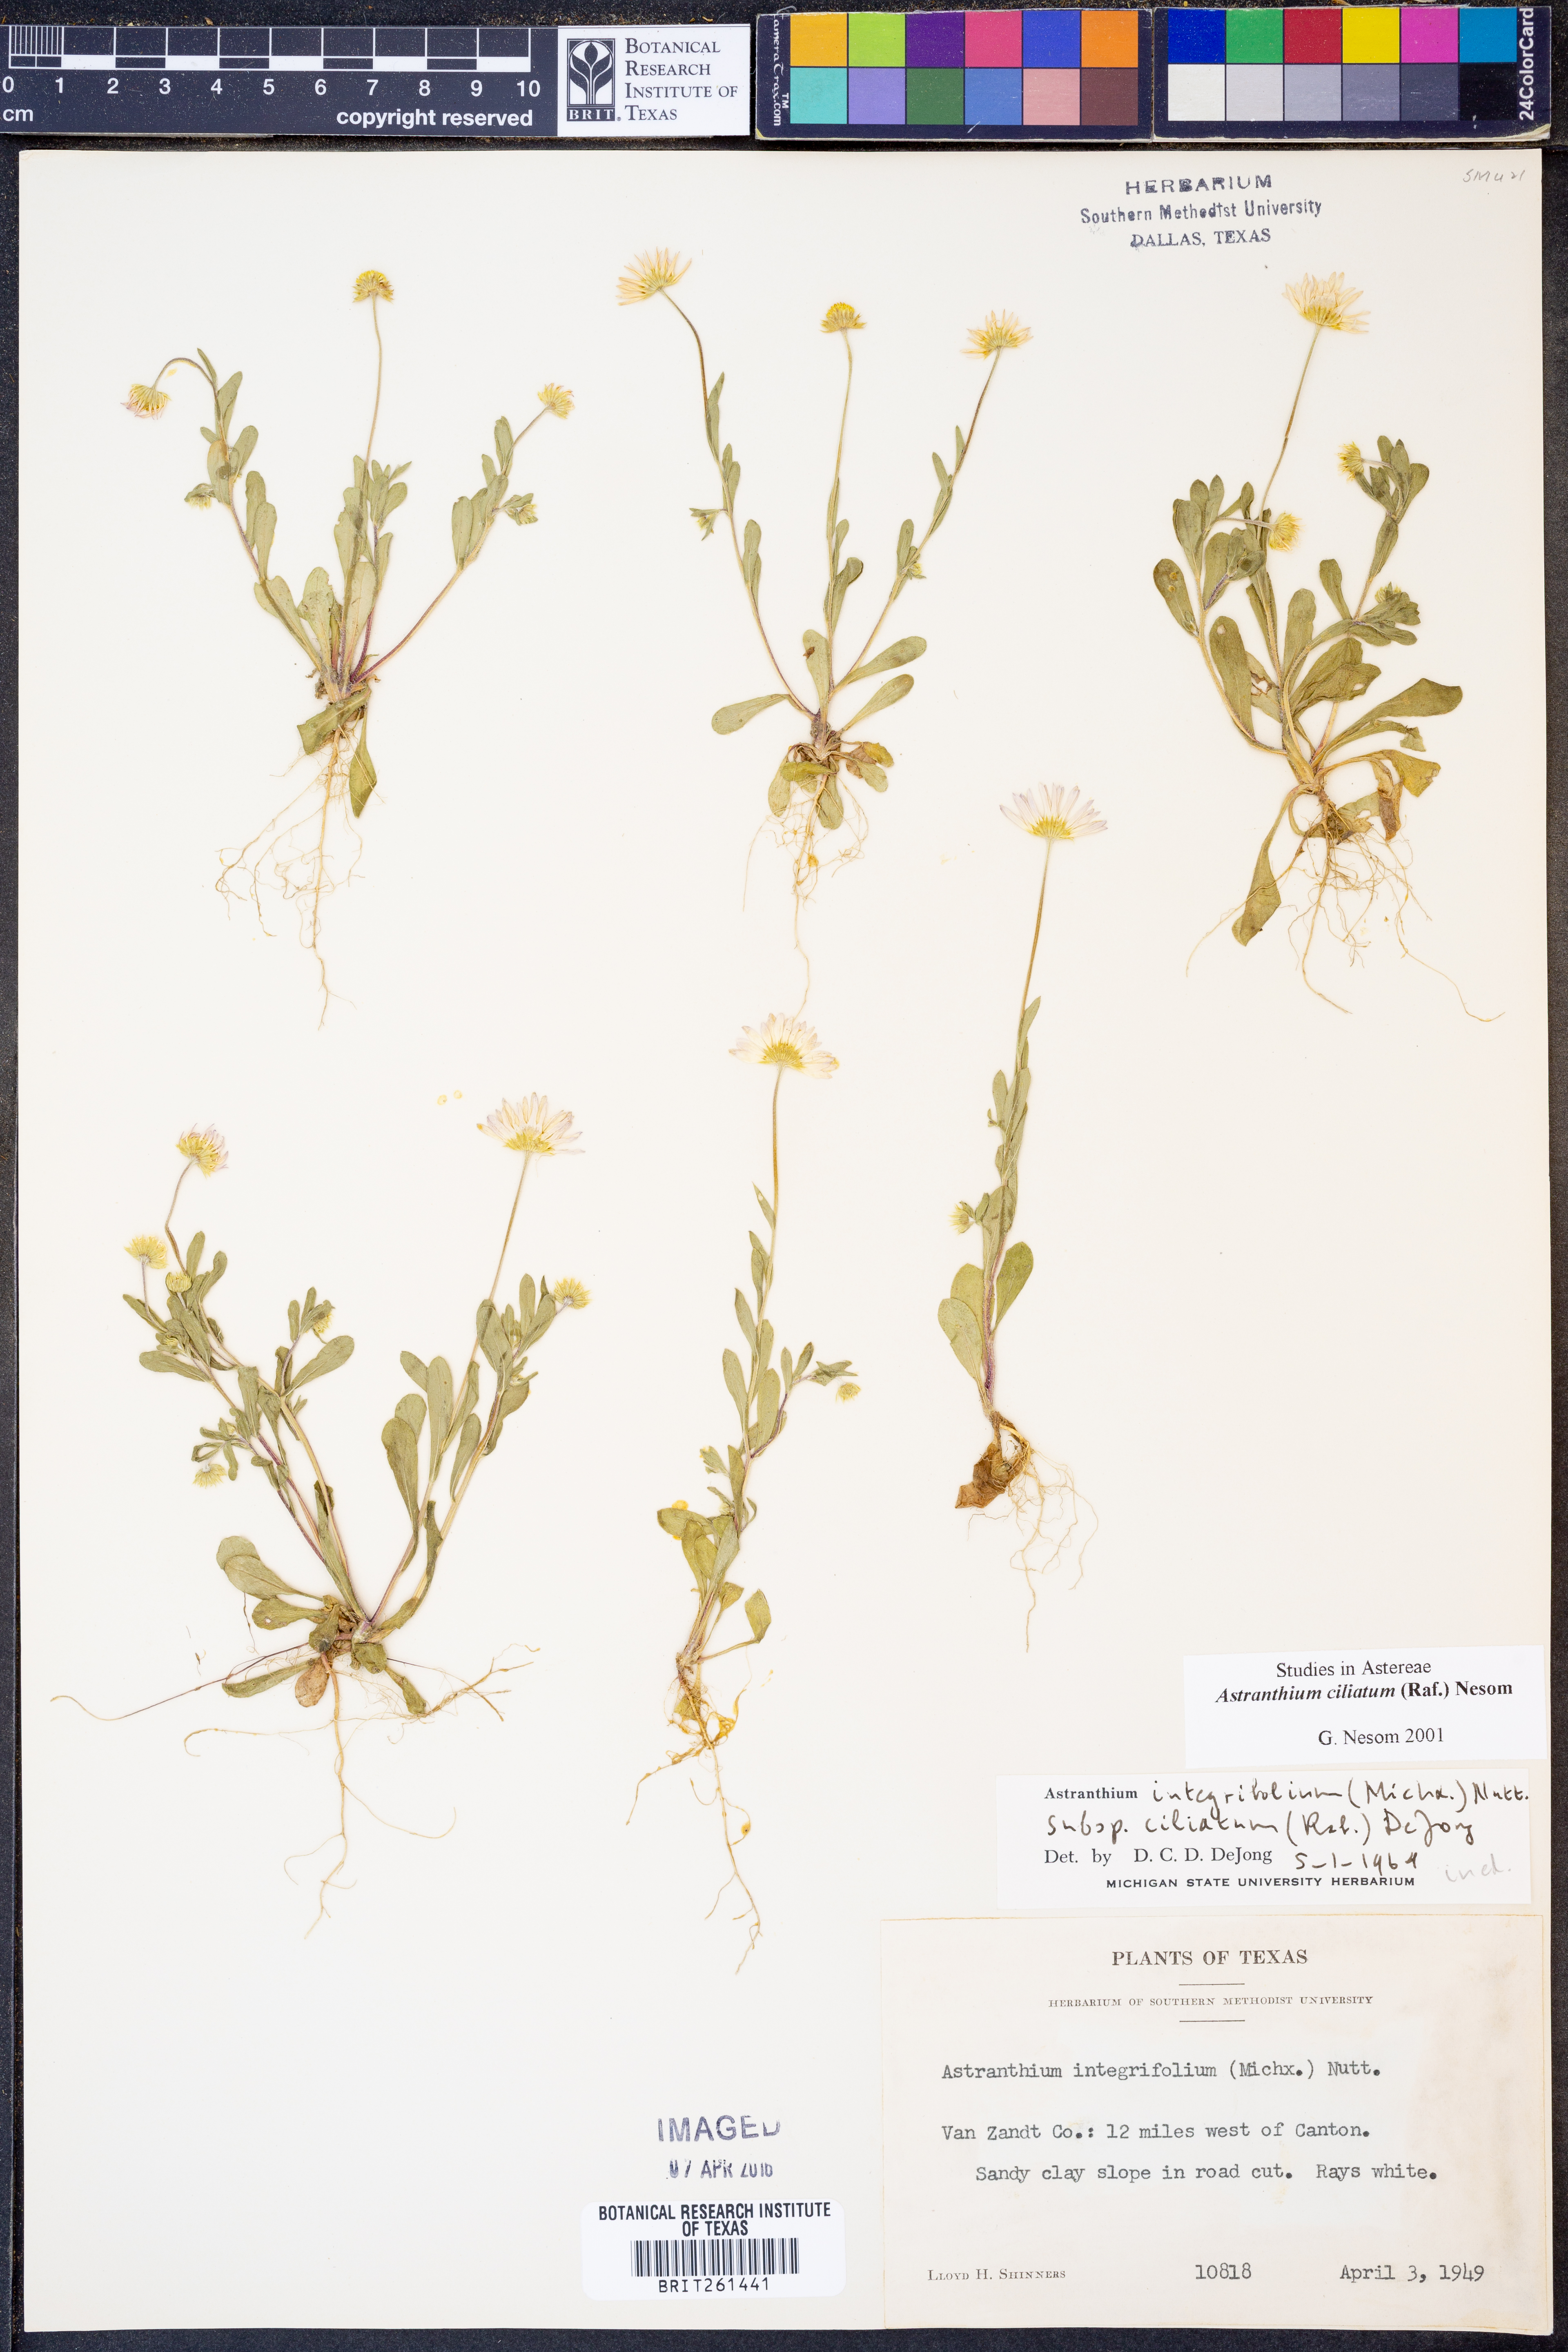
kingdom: Plantae
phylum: Tracheophyta
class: Magnoliopsida
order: Asterales
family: Asteraceae
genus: Astranthium
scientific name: Astranthium ciliatum
